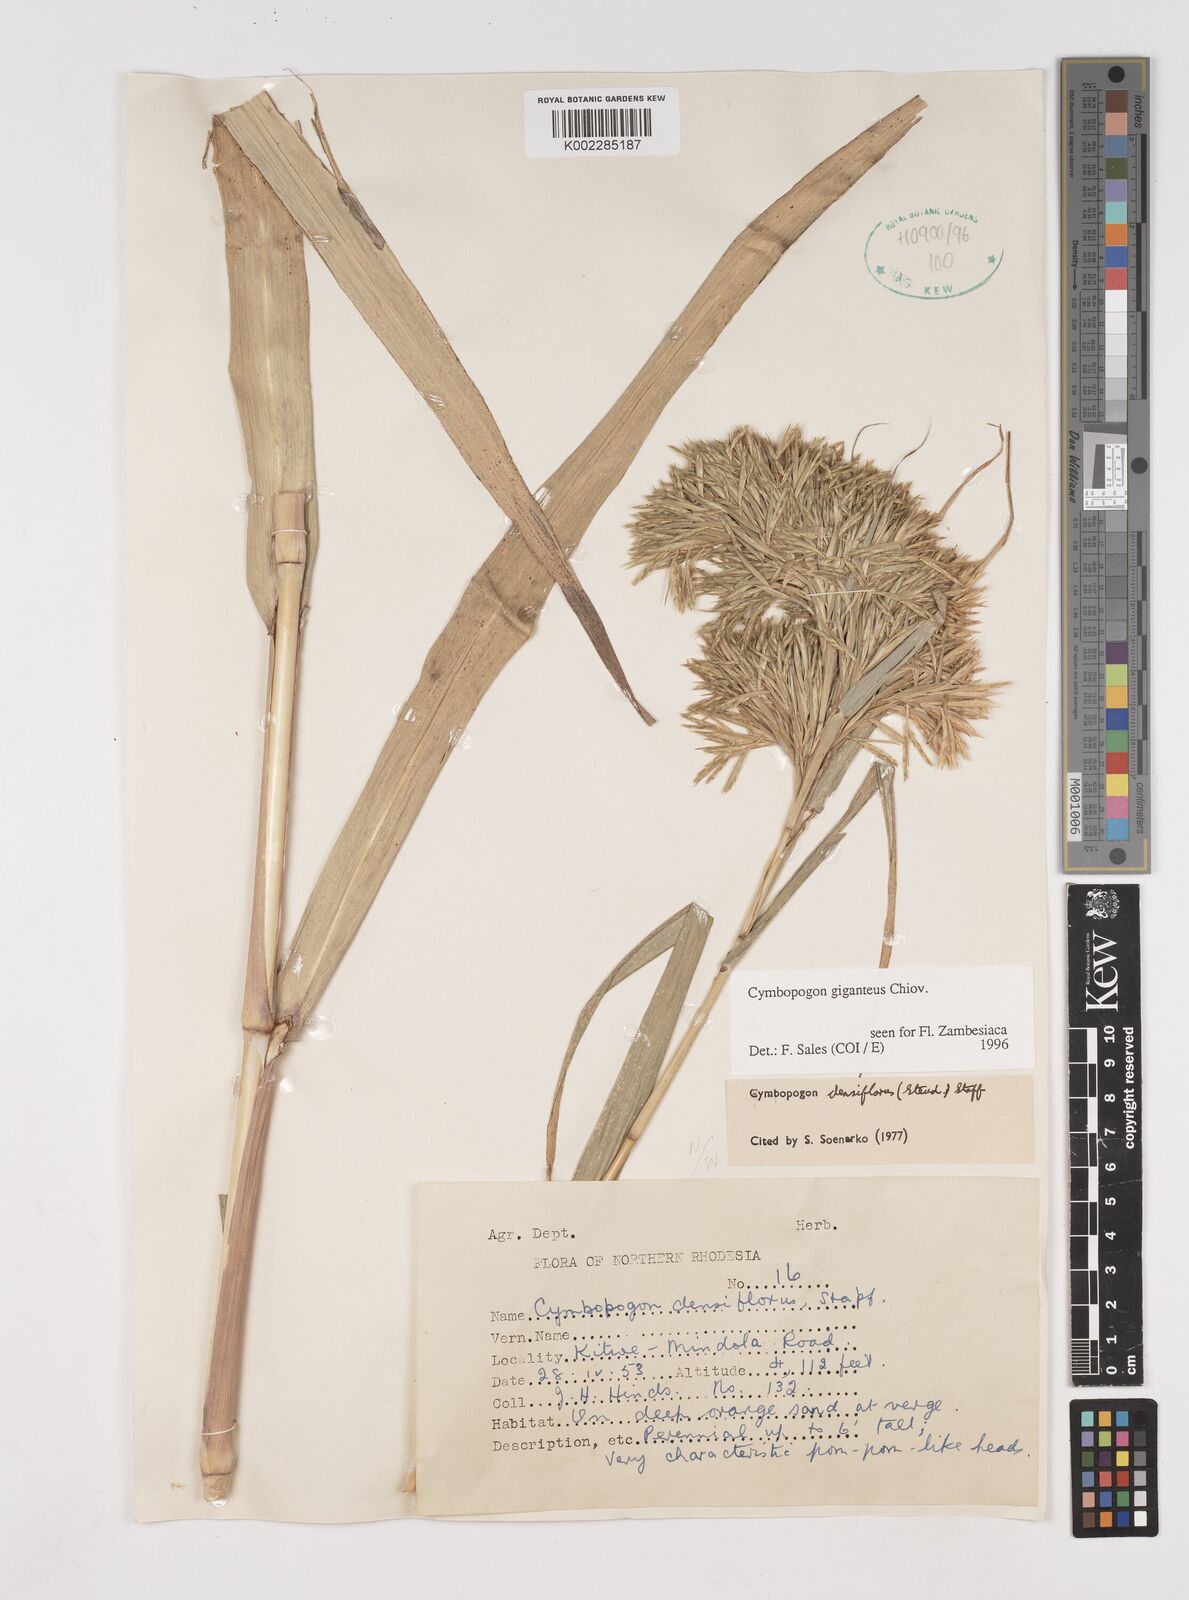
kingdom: Plantae
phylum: Tracheophyta
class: Liliopsida
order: Poales
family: Poaceae
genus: Cymbopogon
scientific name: Cymbopogon densiflorus
